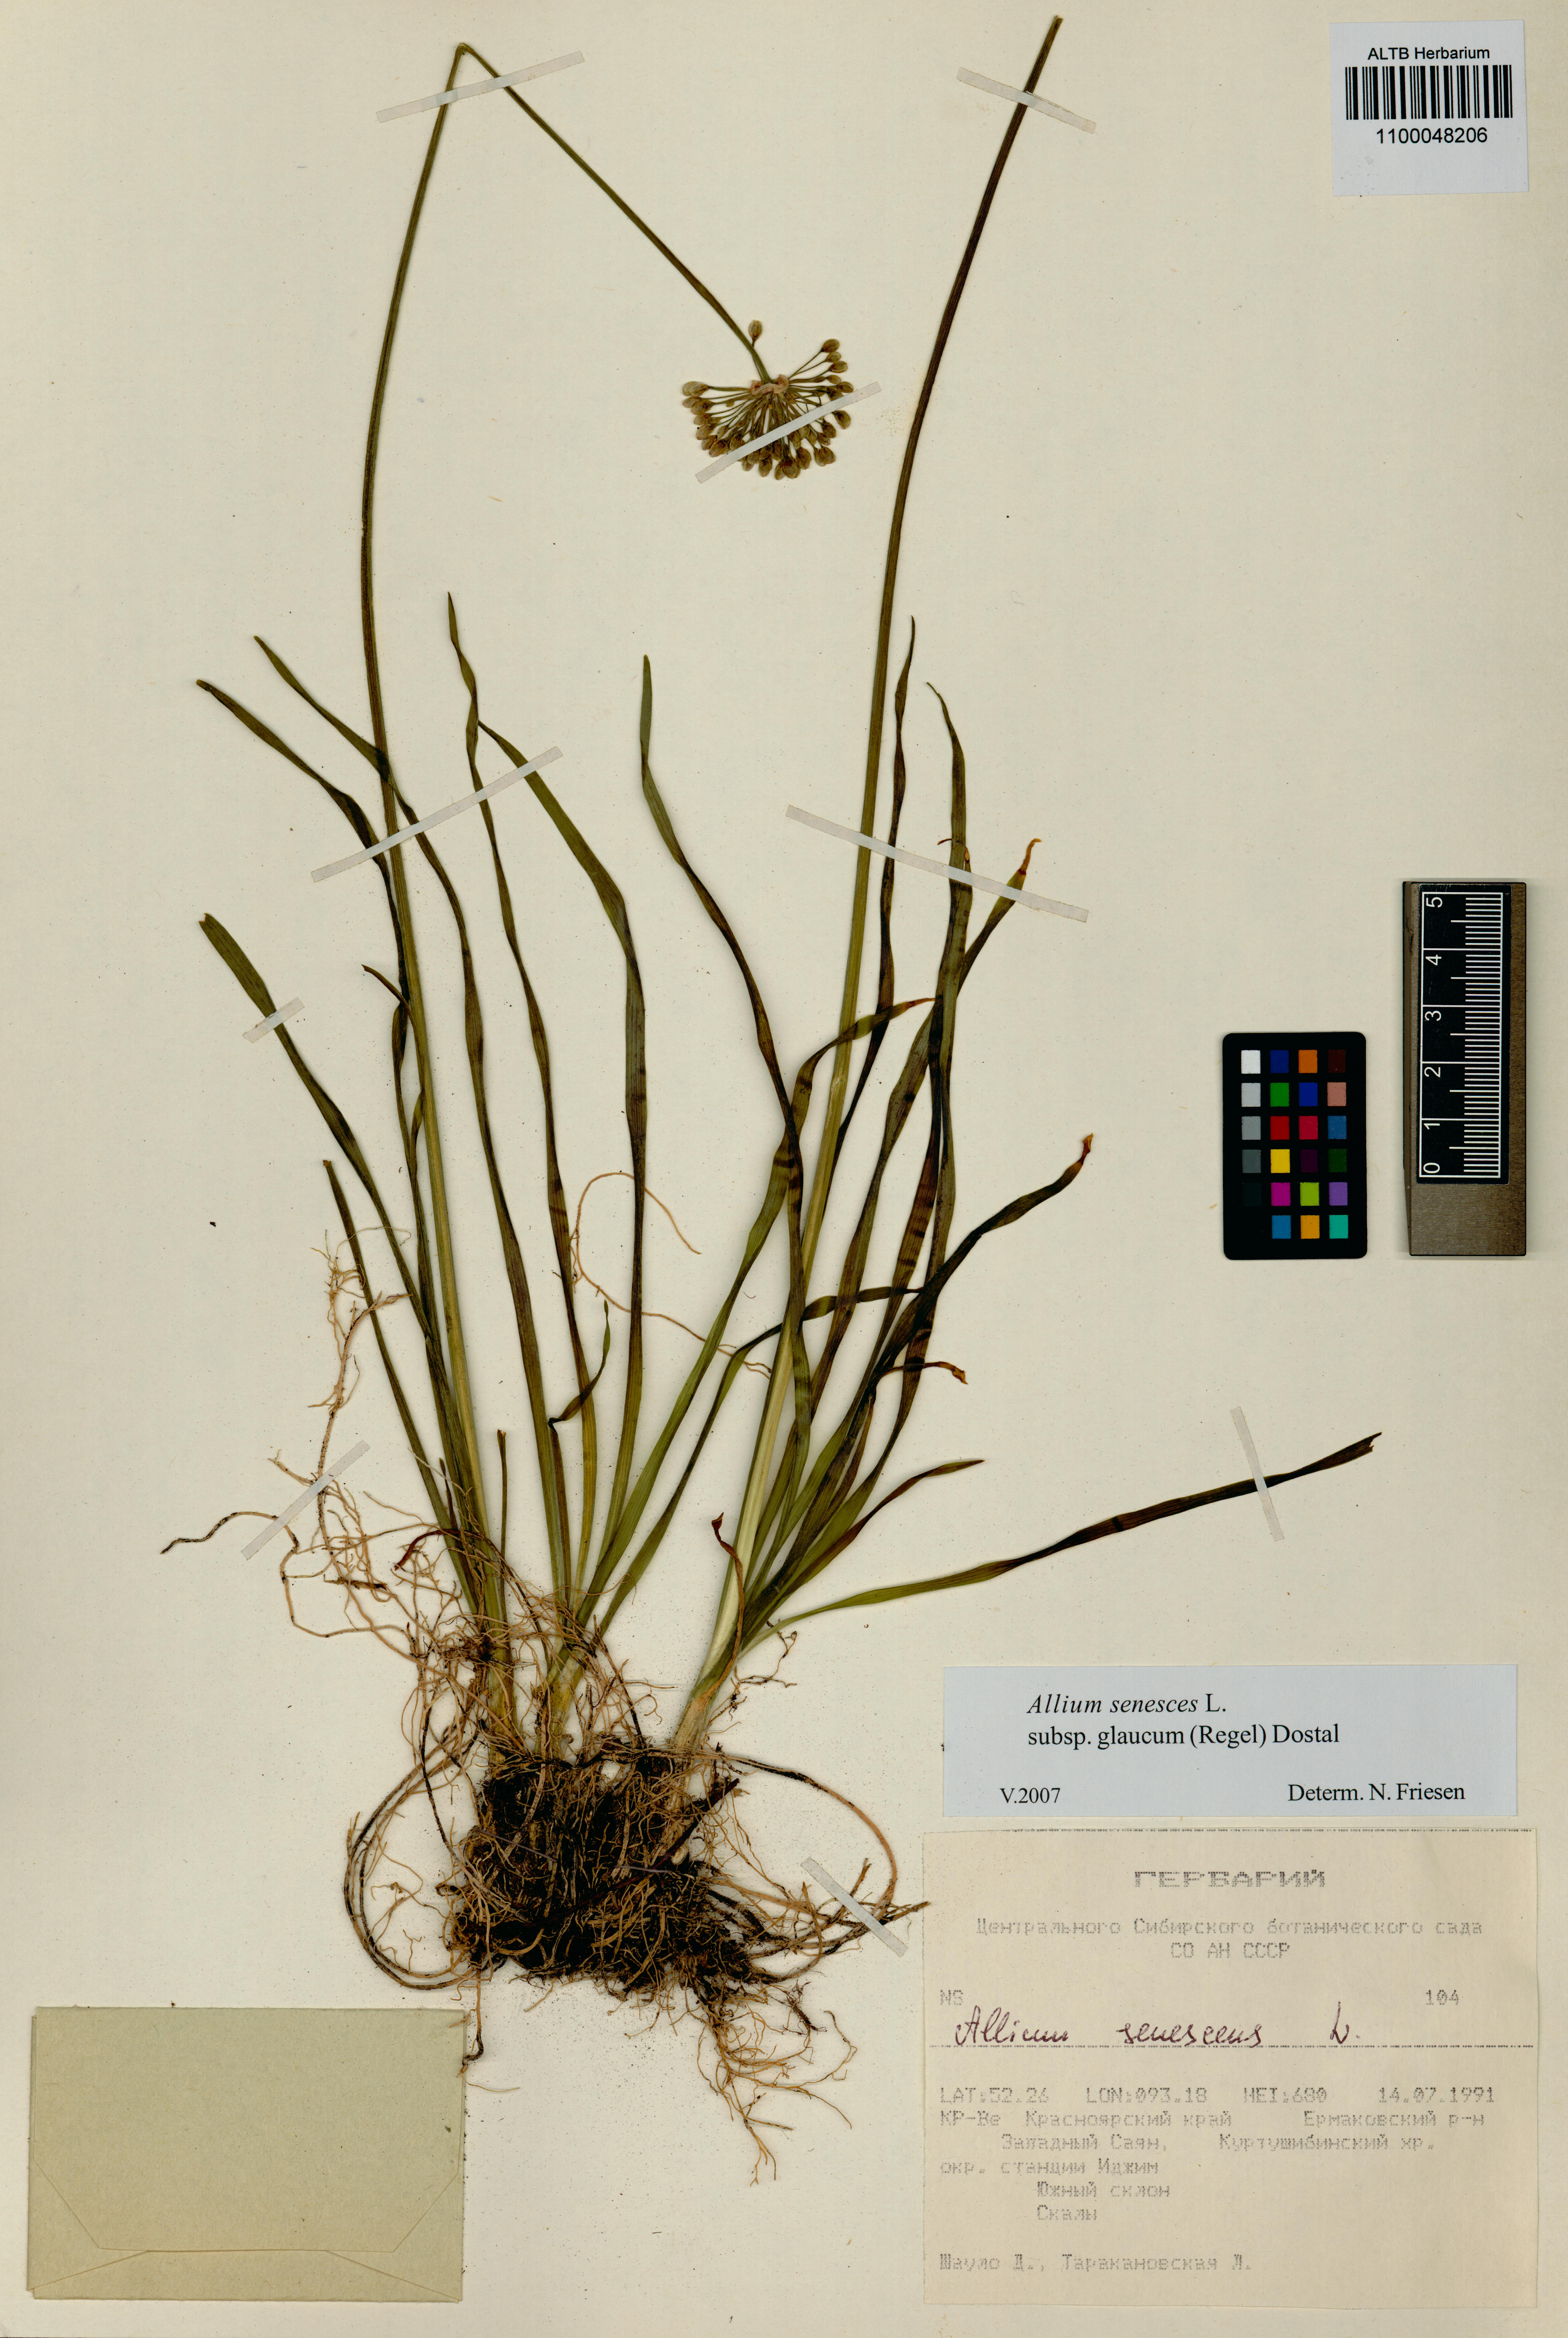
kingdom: Plantae
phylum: Tracheophyta
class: Liliopsida
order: Asparagales
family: Amaryllidaceae
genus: Allium
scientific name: Allium senescens
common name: German garlic
